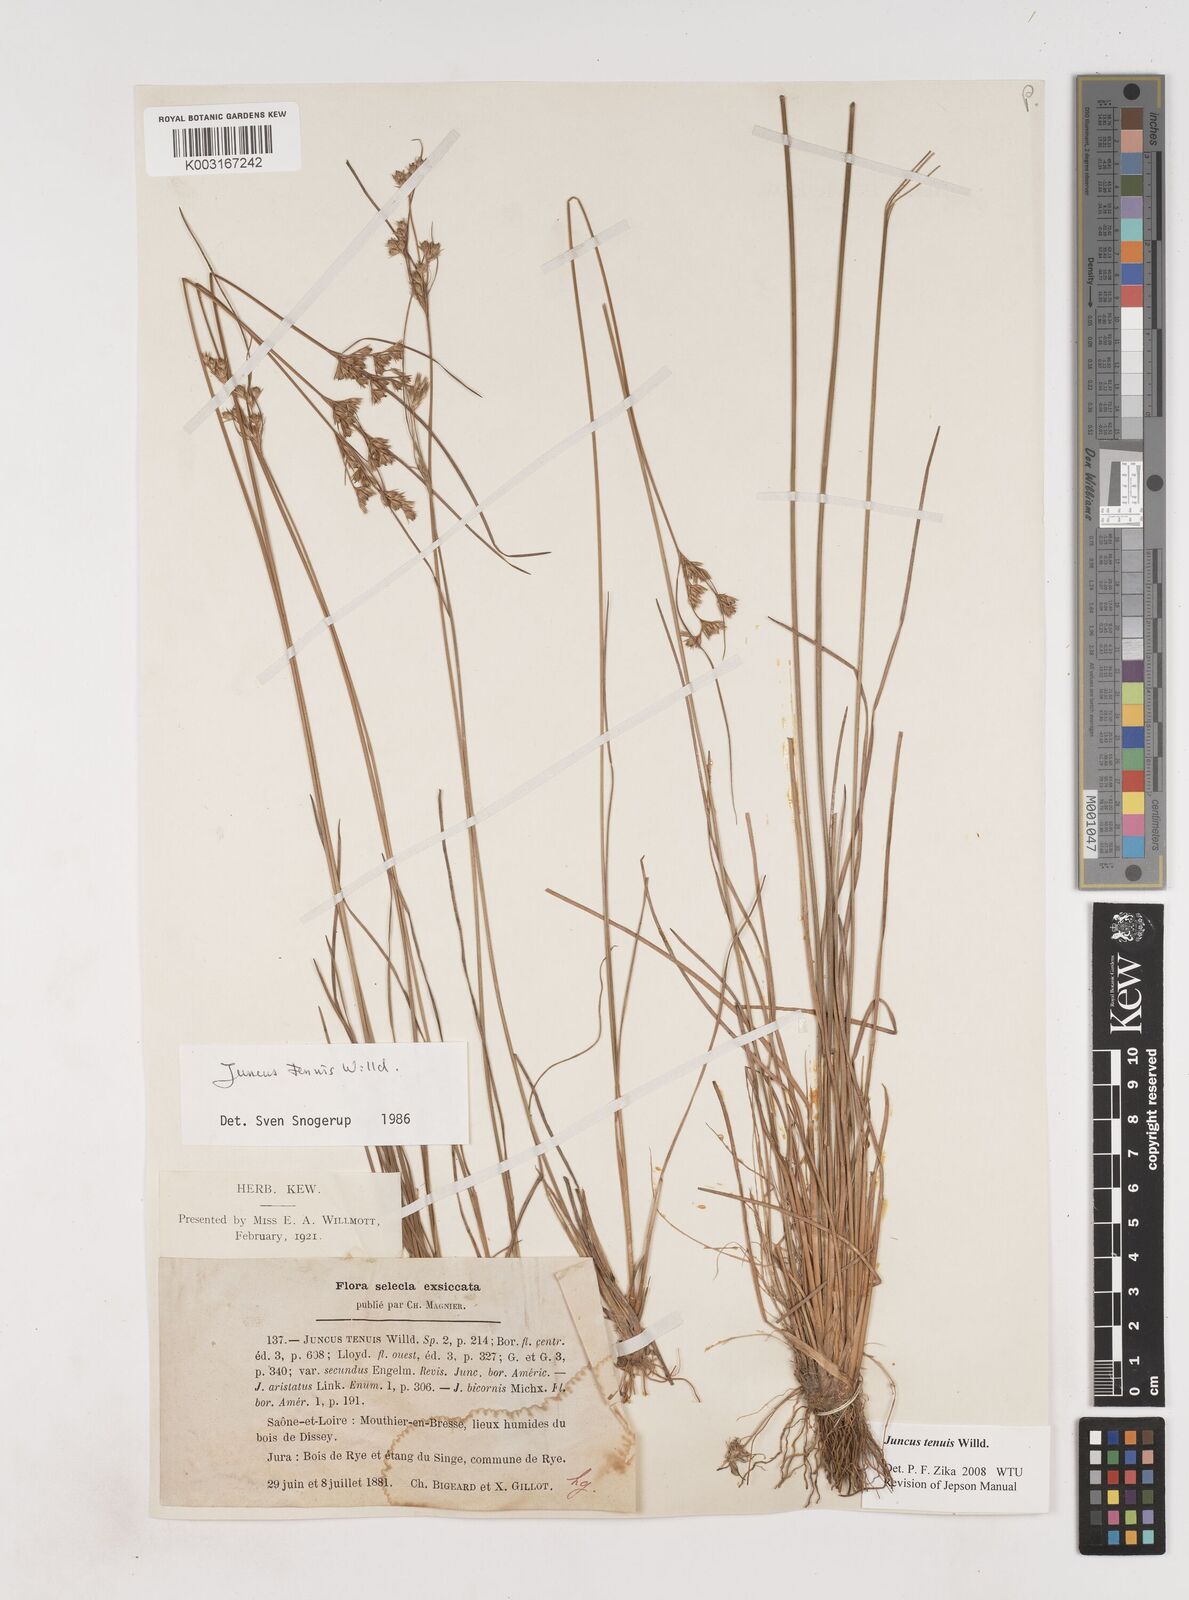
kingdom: Plantae
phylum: Tracheophyta
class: Liliopsida
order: Poales
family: Juncaceae
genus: Juncus
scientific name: Juncus tenuis
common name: Slender rush
